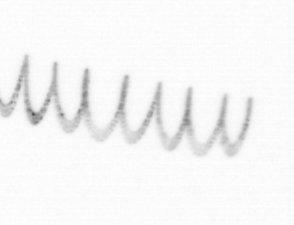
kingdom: Chromista
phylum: Ochrophyta
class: Bacillariophyceae
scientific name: Bacillariophyceae
